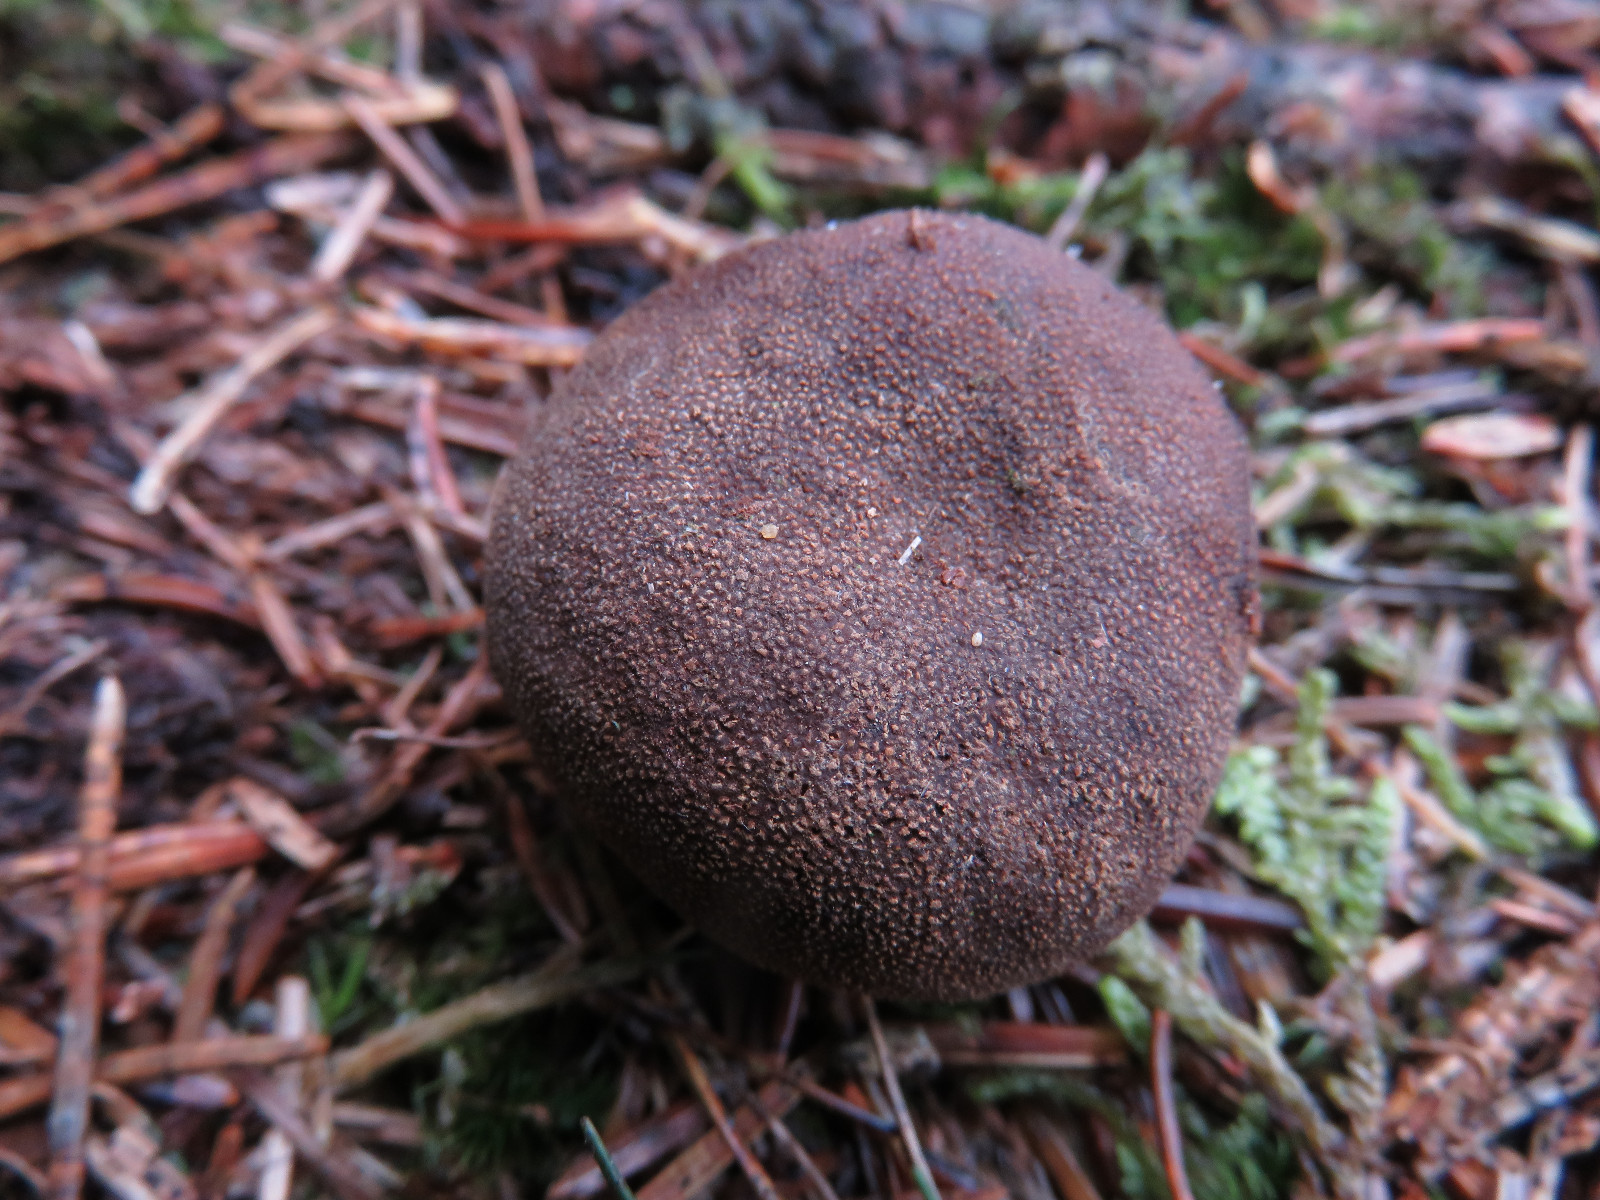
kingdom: Fungi
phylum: Ascomycota
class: Eurotiomycetes
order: Eurotiales
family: Elaphomycetaceae
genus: Elaphomyces
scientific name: Elaphomyces granulatus
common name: grynet hjortetrøffel
